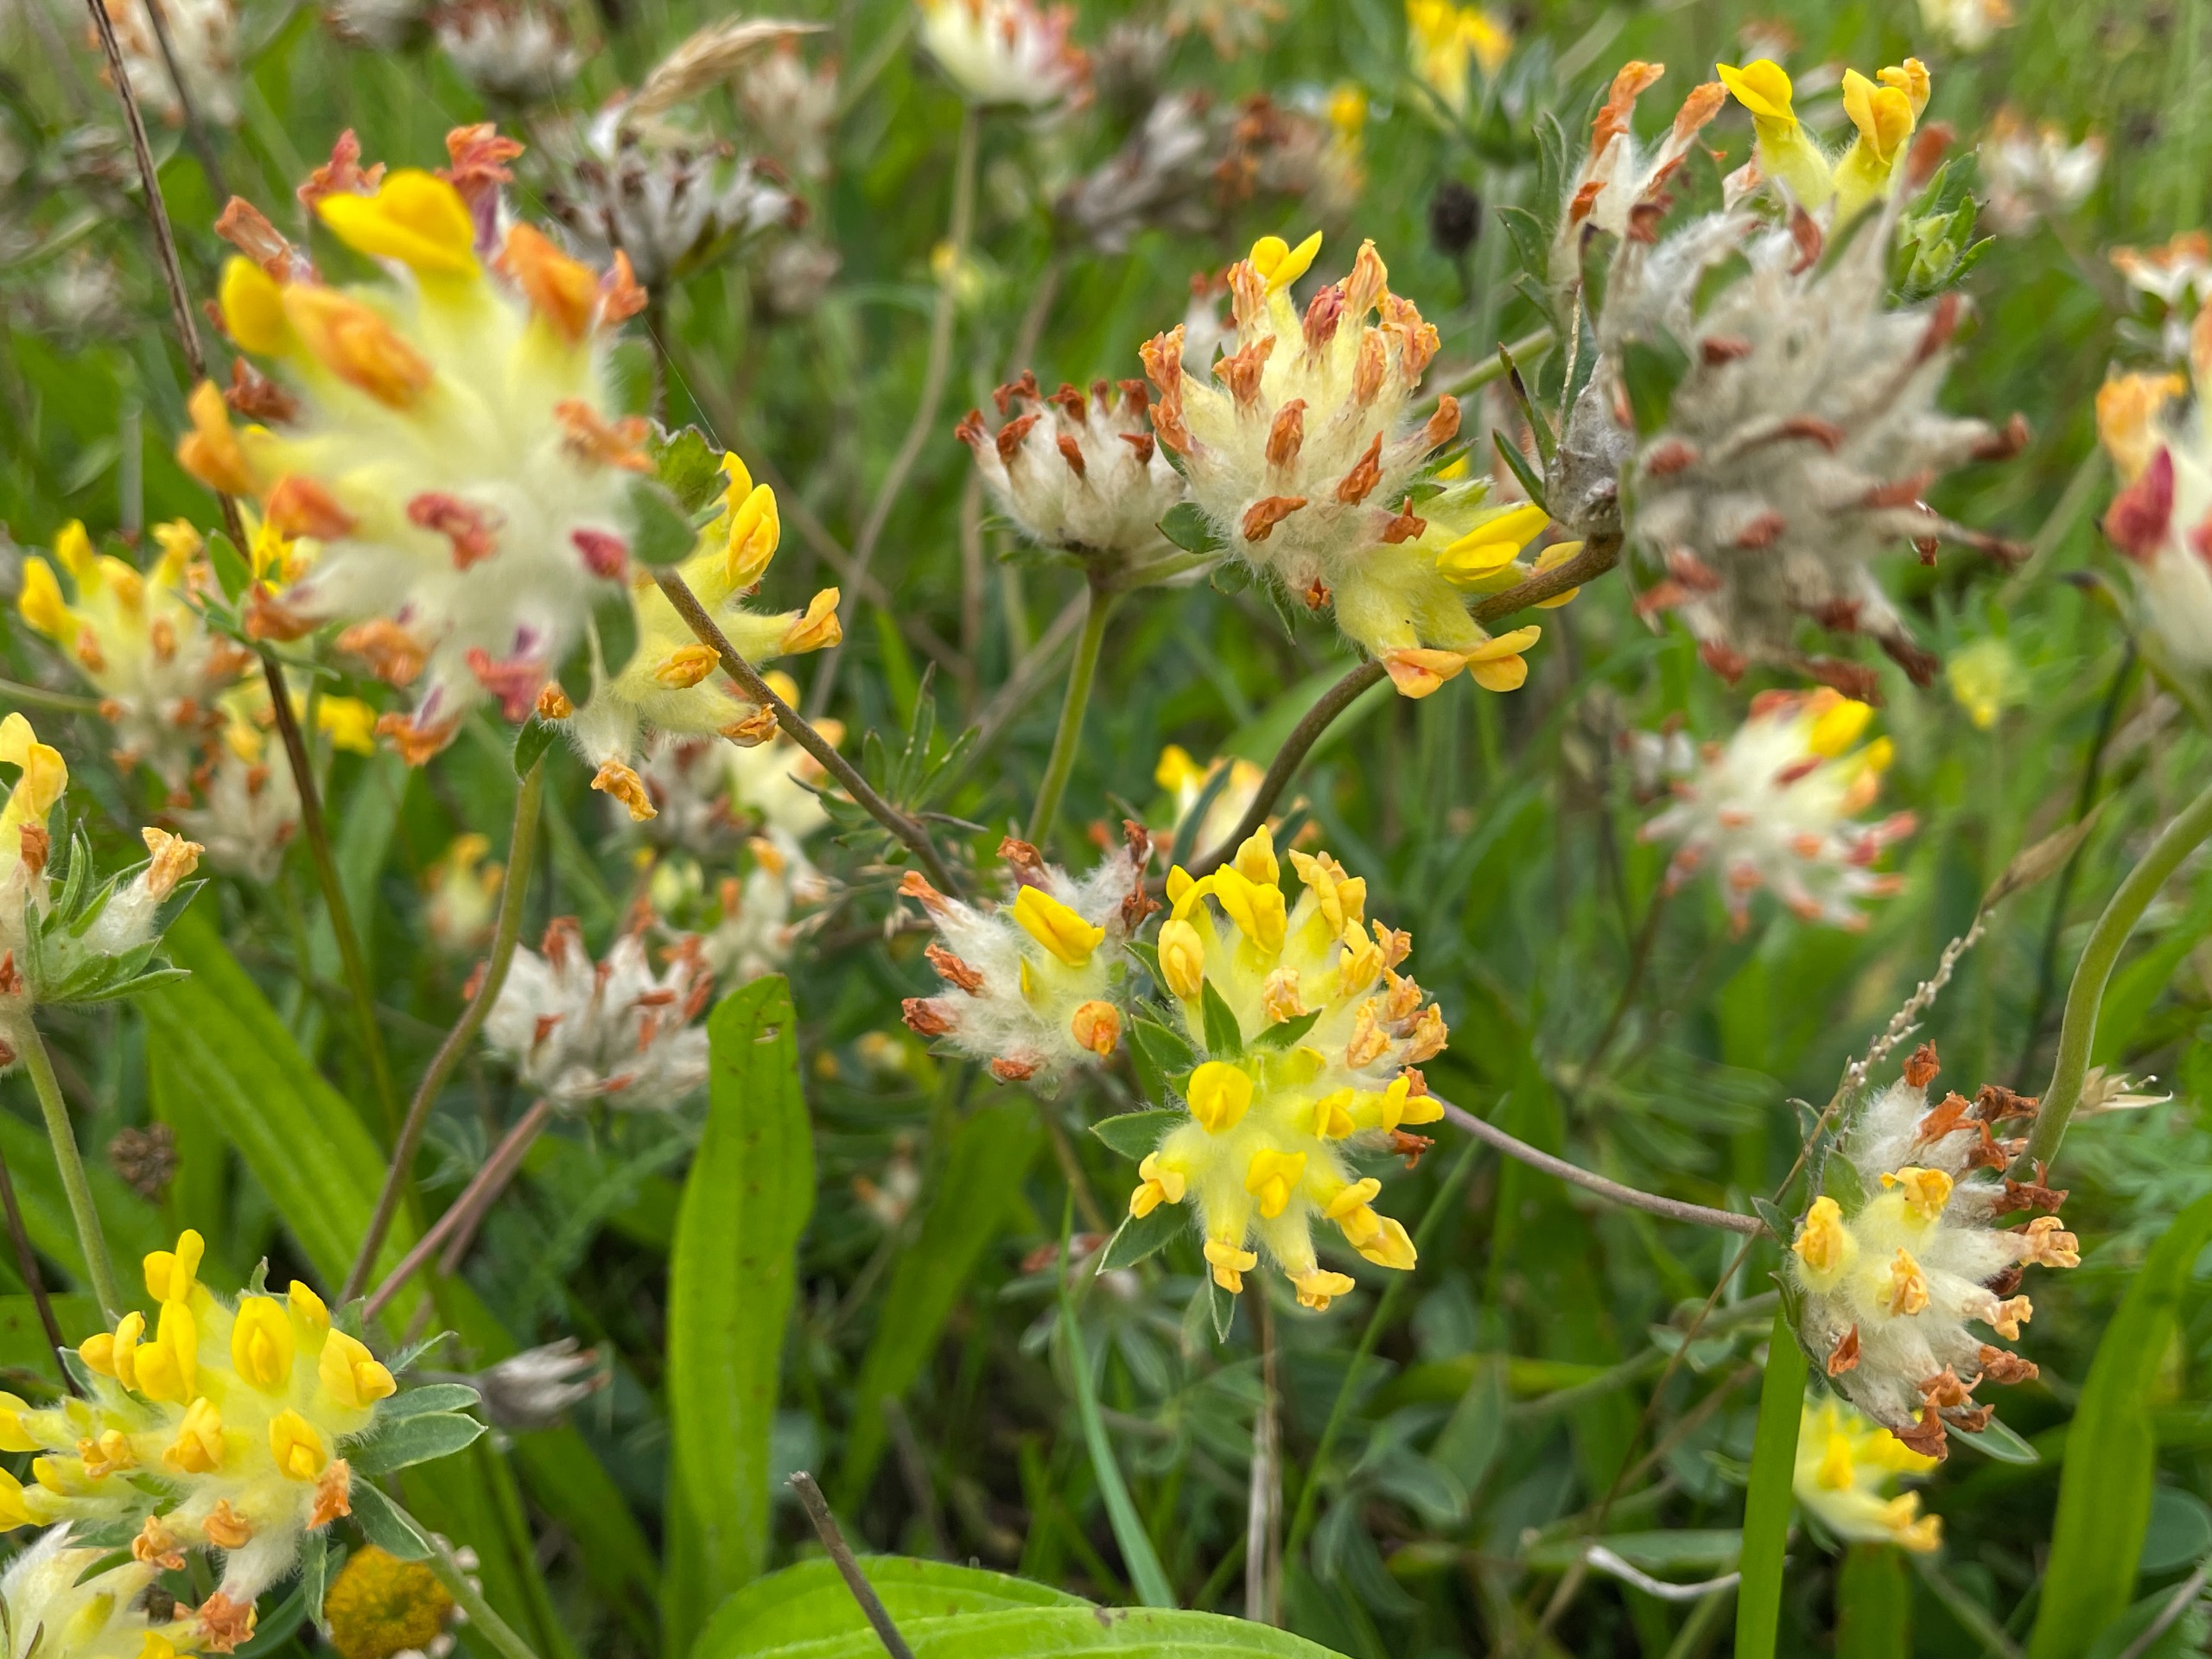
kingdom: Plantae
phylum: Tracheophyta
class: Magnoliopsida
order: Fabales
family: Fabaceae
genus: Anthyllis
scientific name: Anthyllis vulneraria
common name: Rundbælg
